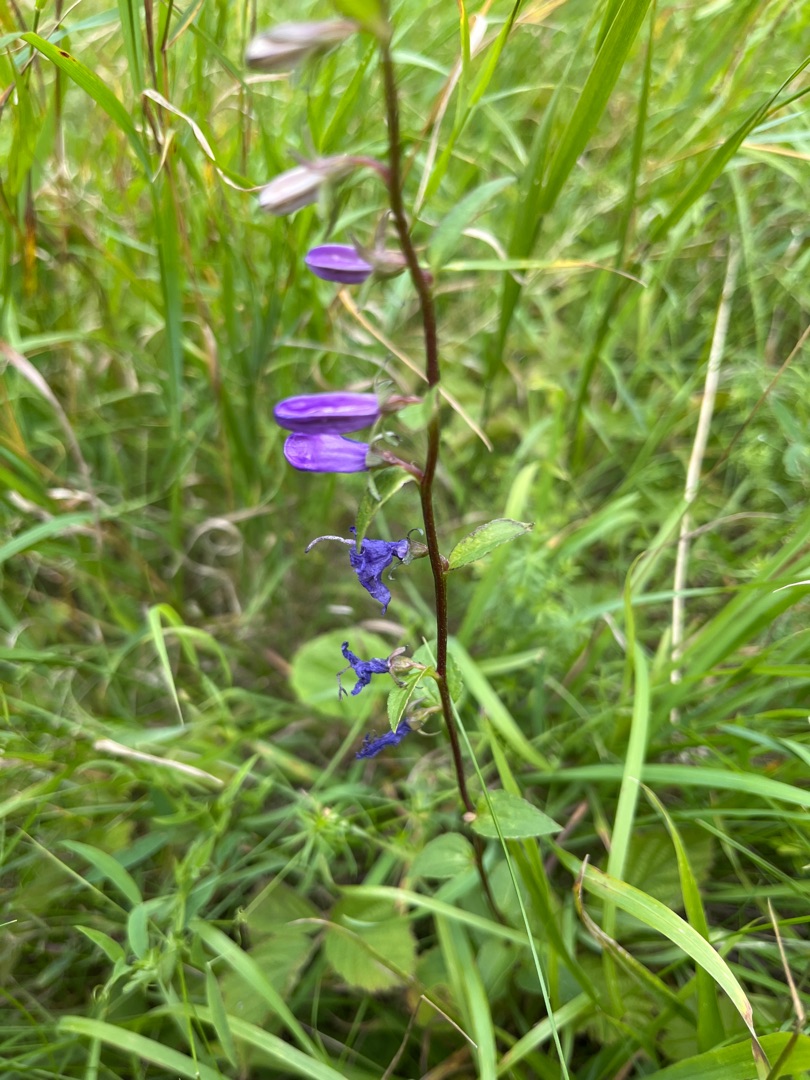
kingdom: Plantae
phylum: Tracheophyta
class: Magnoliopsida
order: Asterales
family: Campanulaceae
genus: Campanula
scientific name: Campanula rapunculoides
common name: Ensidig klokke
